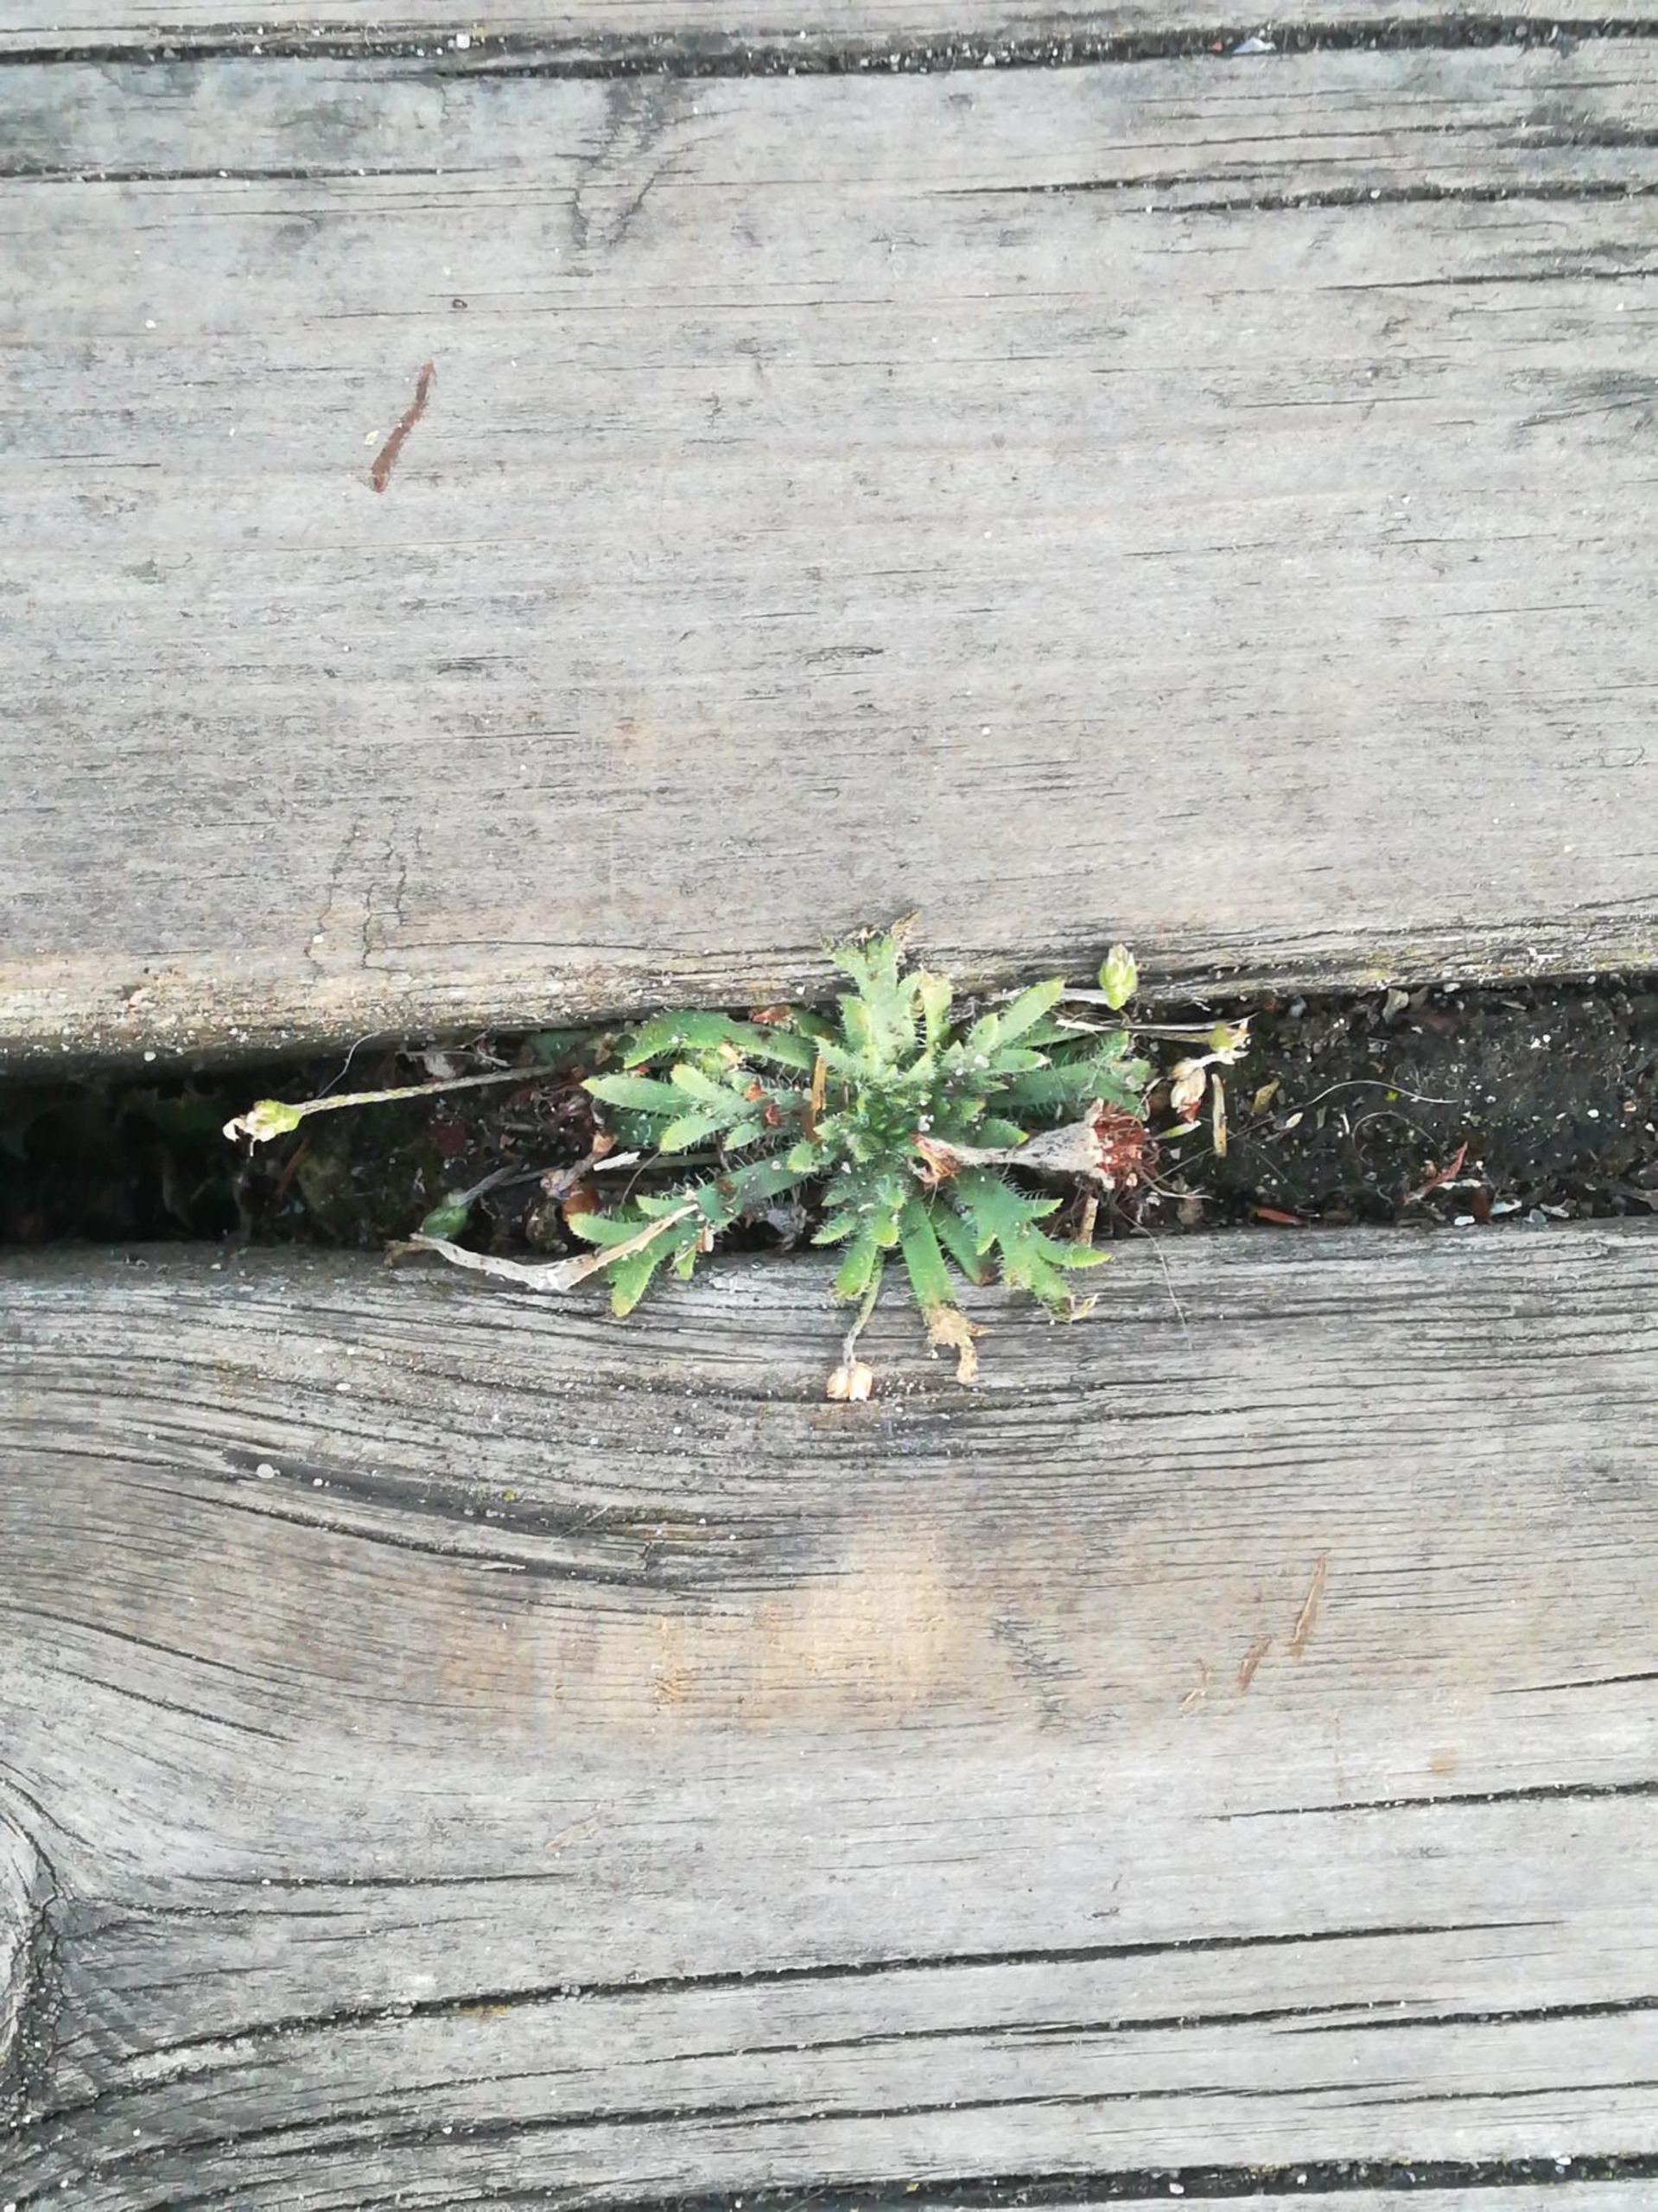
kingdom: Plantae
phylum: Tracheophyta
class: Magnoliopsida
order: Lamiales
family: Plantaginaceae
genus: Plantago
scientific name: Plantago coronopus
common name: Fliget vejbred
